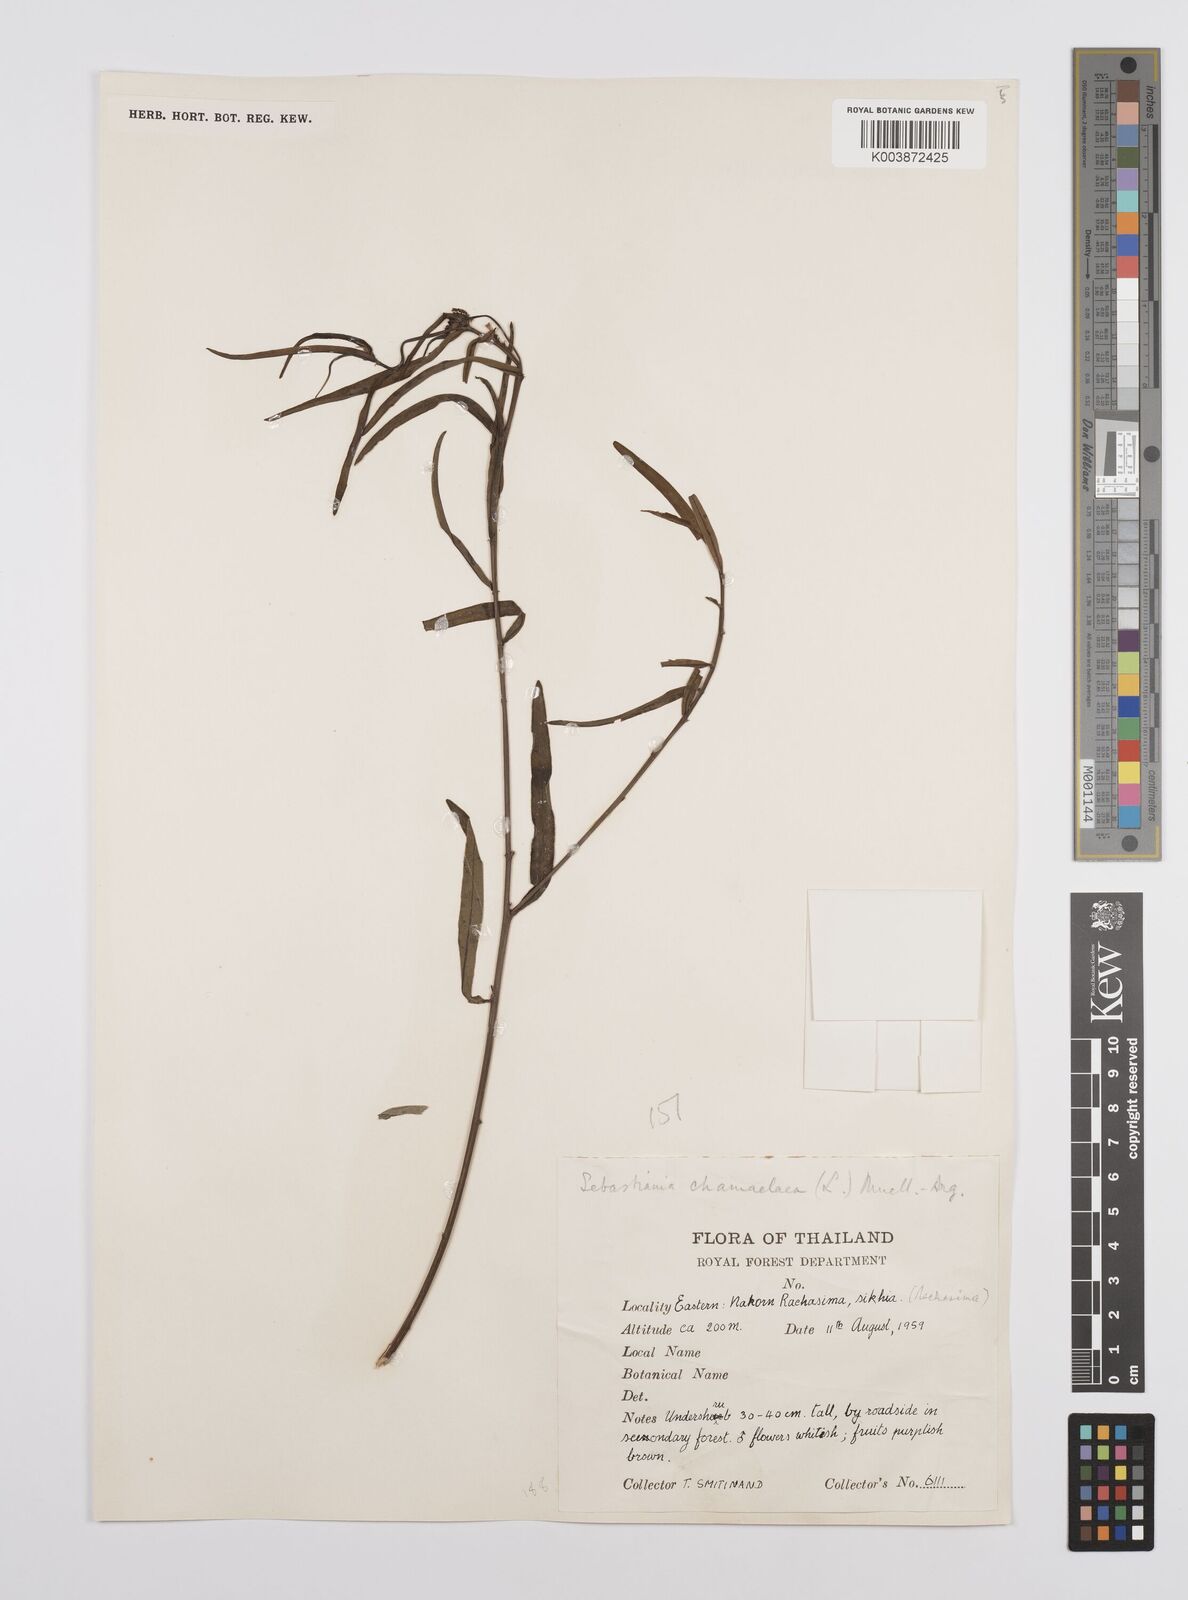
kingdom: Plantae
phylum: Tracheophyta
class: Magnoliopsida
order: Malpighiales
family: Euphorbiaceae
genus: Microstachys
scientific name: Microstachys chamaelea
